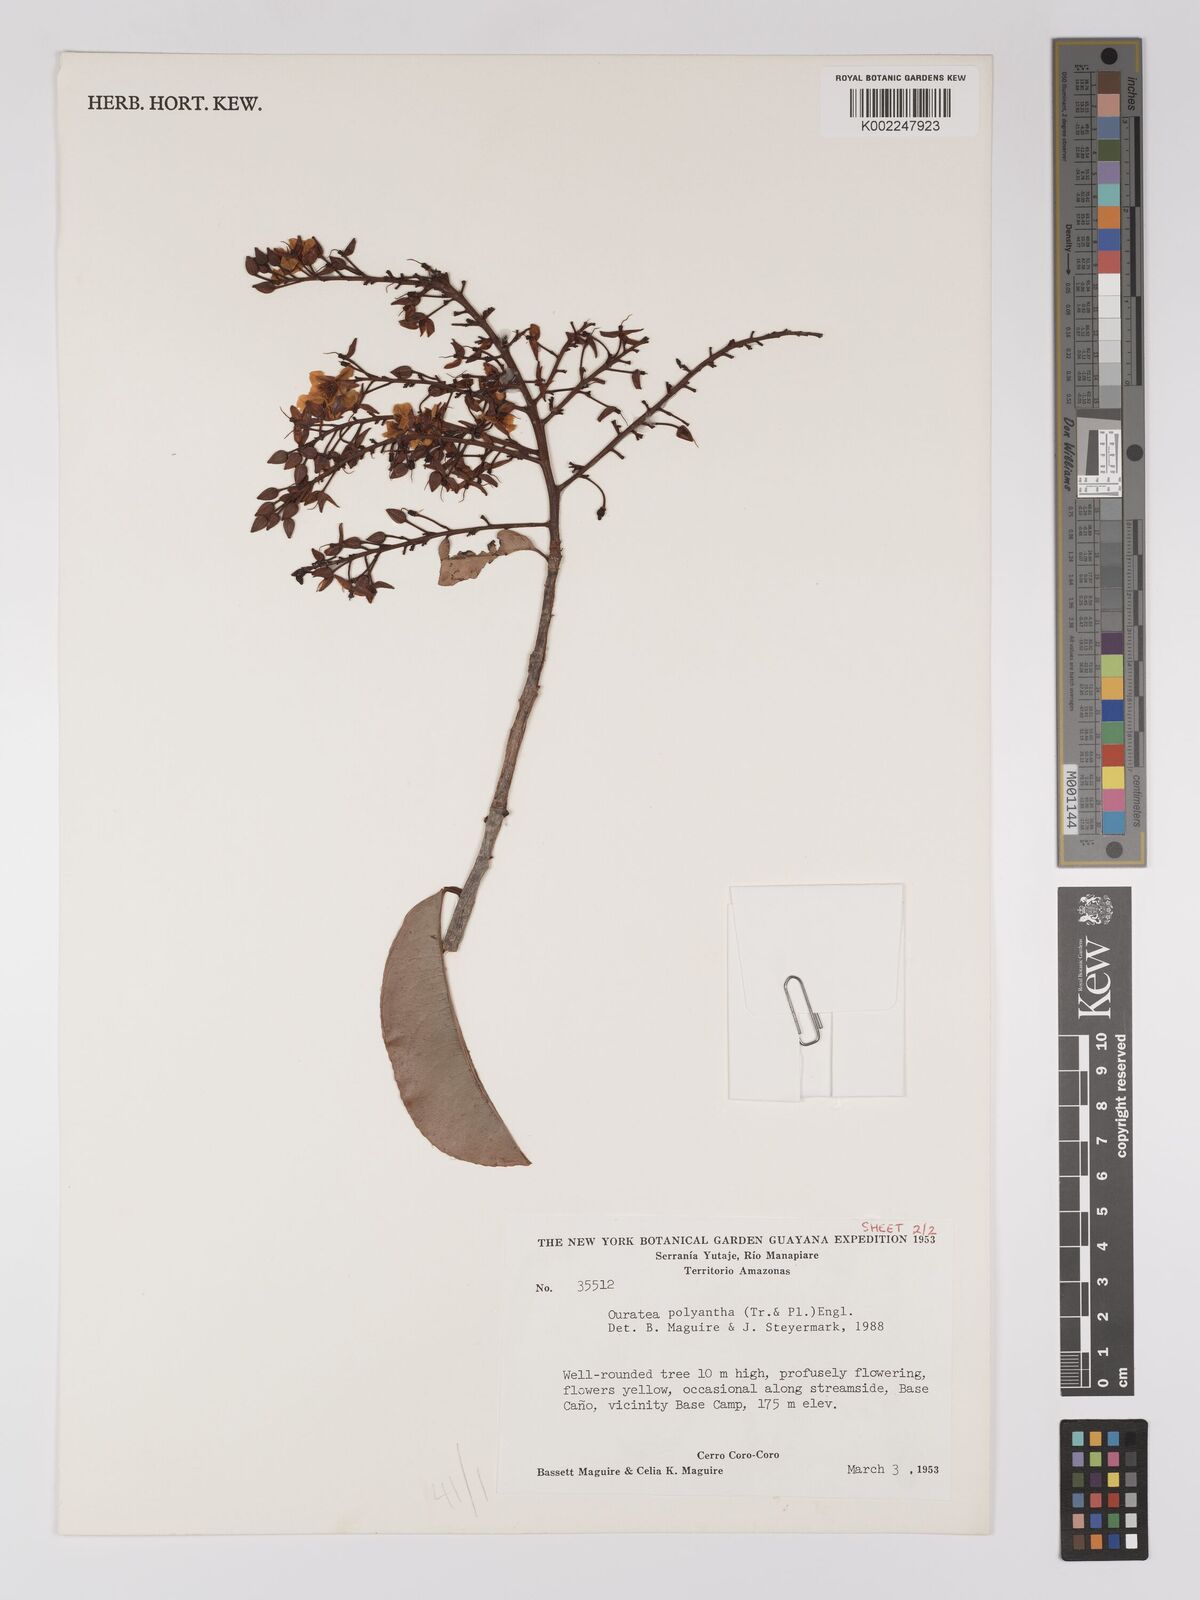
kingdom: Plantae
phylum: Tracheophyta
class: Magnoliopsida
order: Malpighiales
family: Ochnaceae
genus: Ouratea
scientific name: Ouratea polyantha
